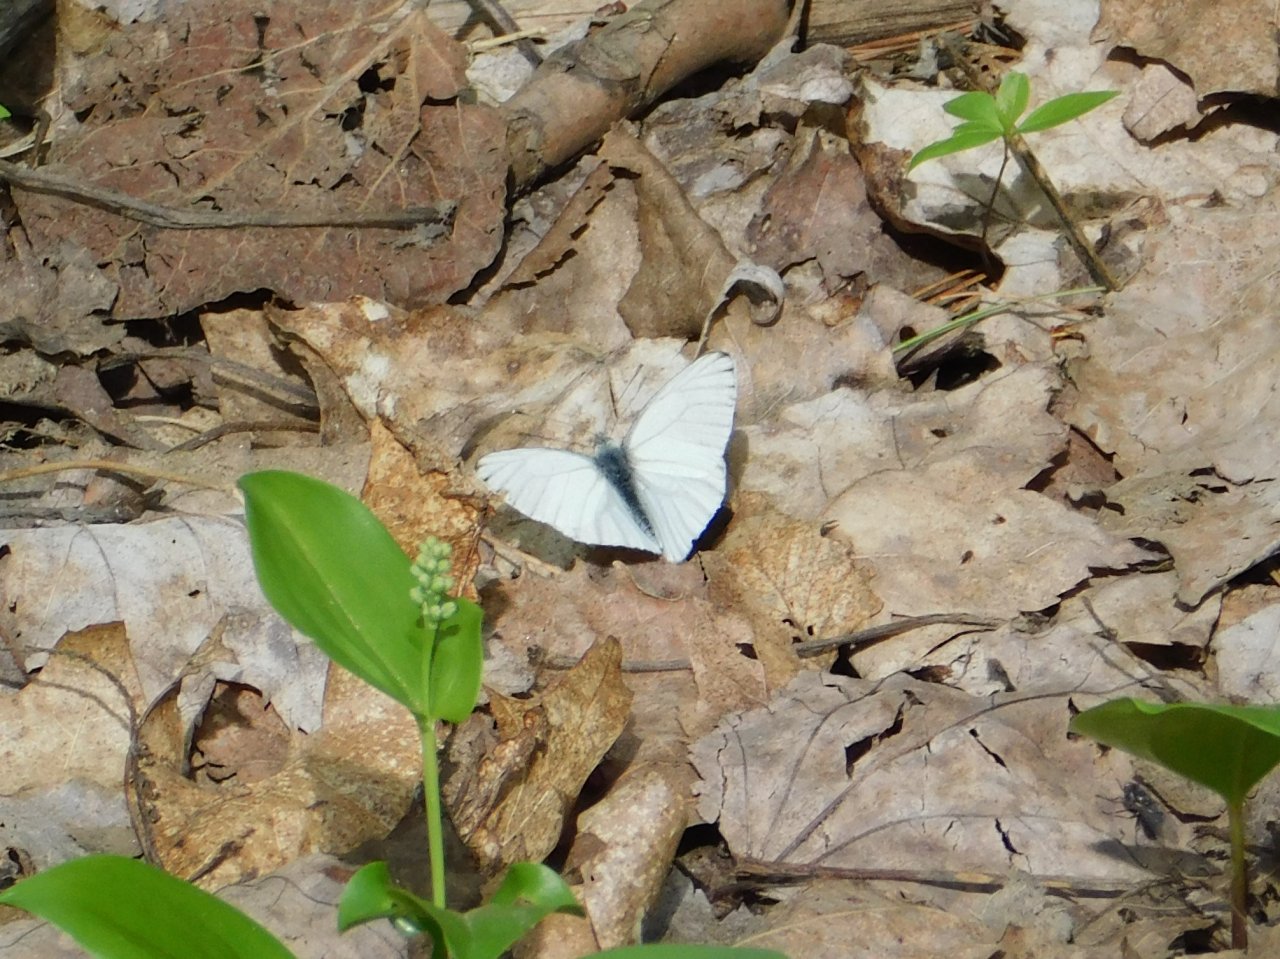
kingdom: Animalia
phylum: Arthropoda
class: Insecta
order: Lepidoptera
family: Pieridae
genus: Pieris
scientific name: Pieris oleracea
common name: Mustard White
